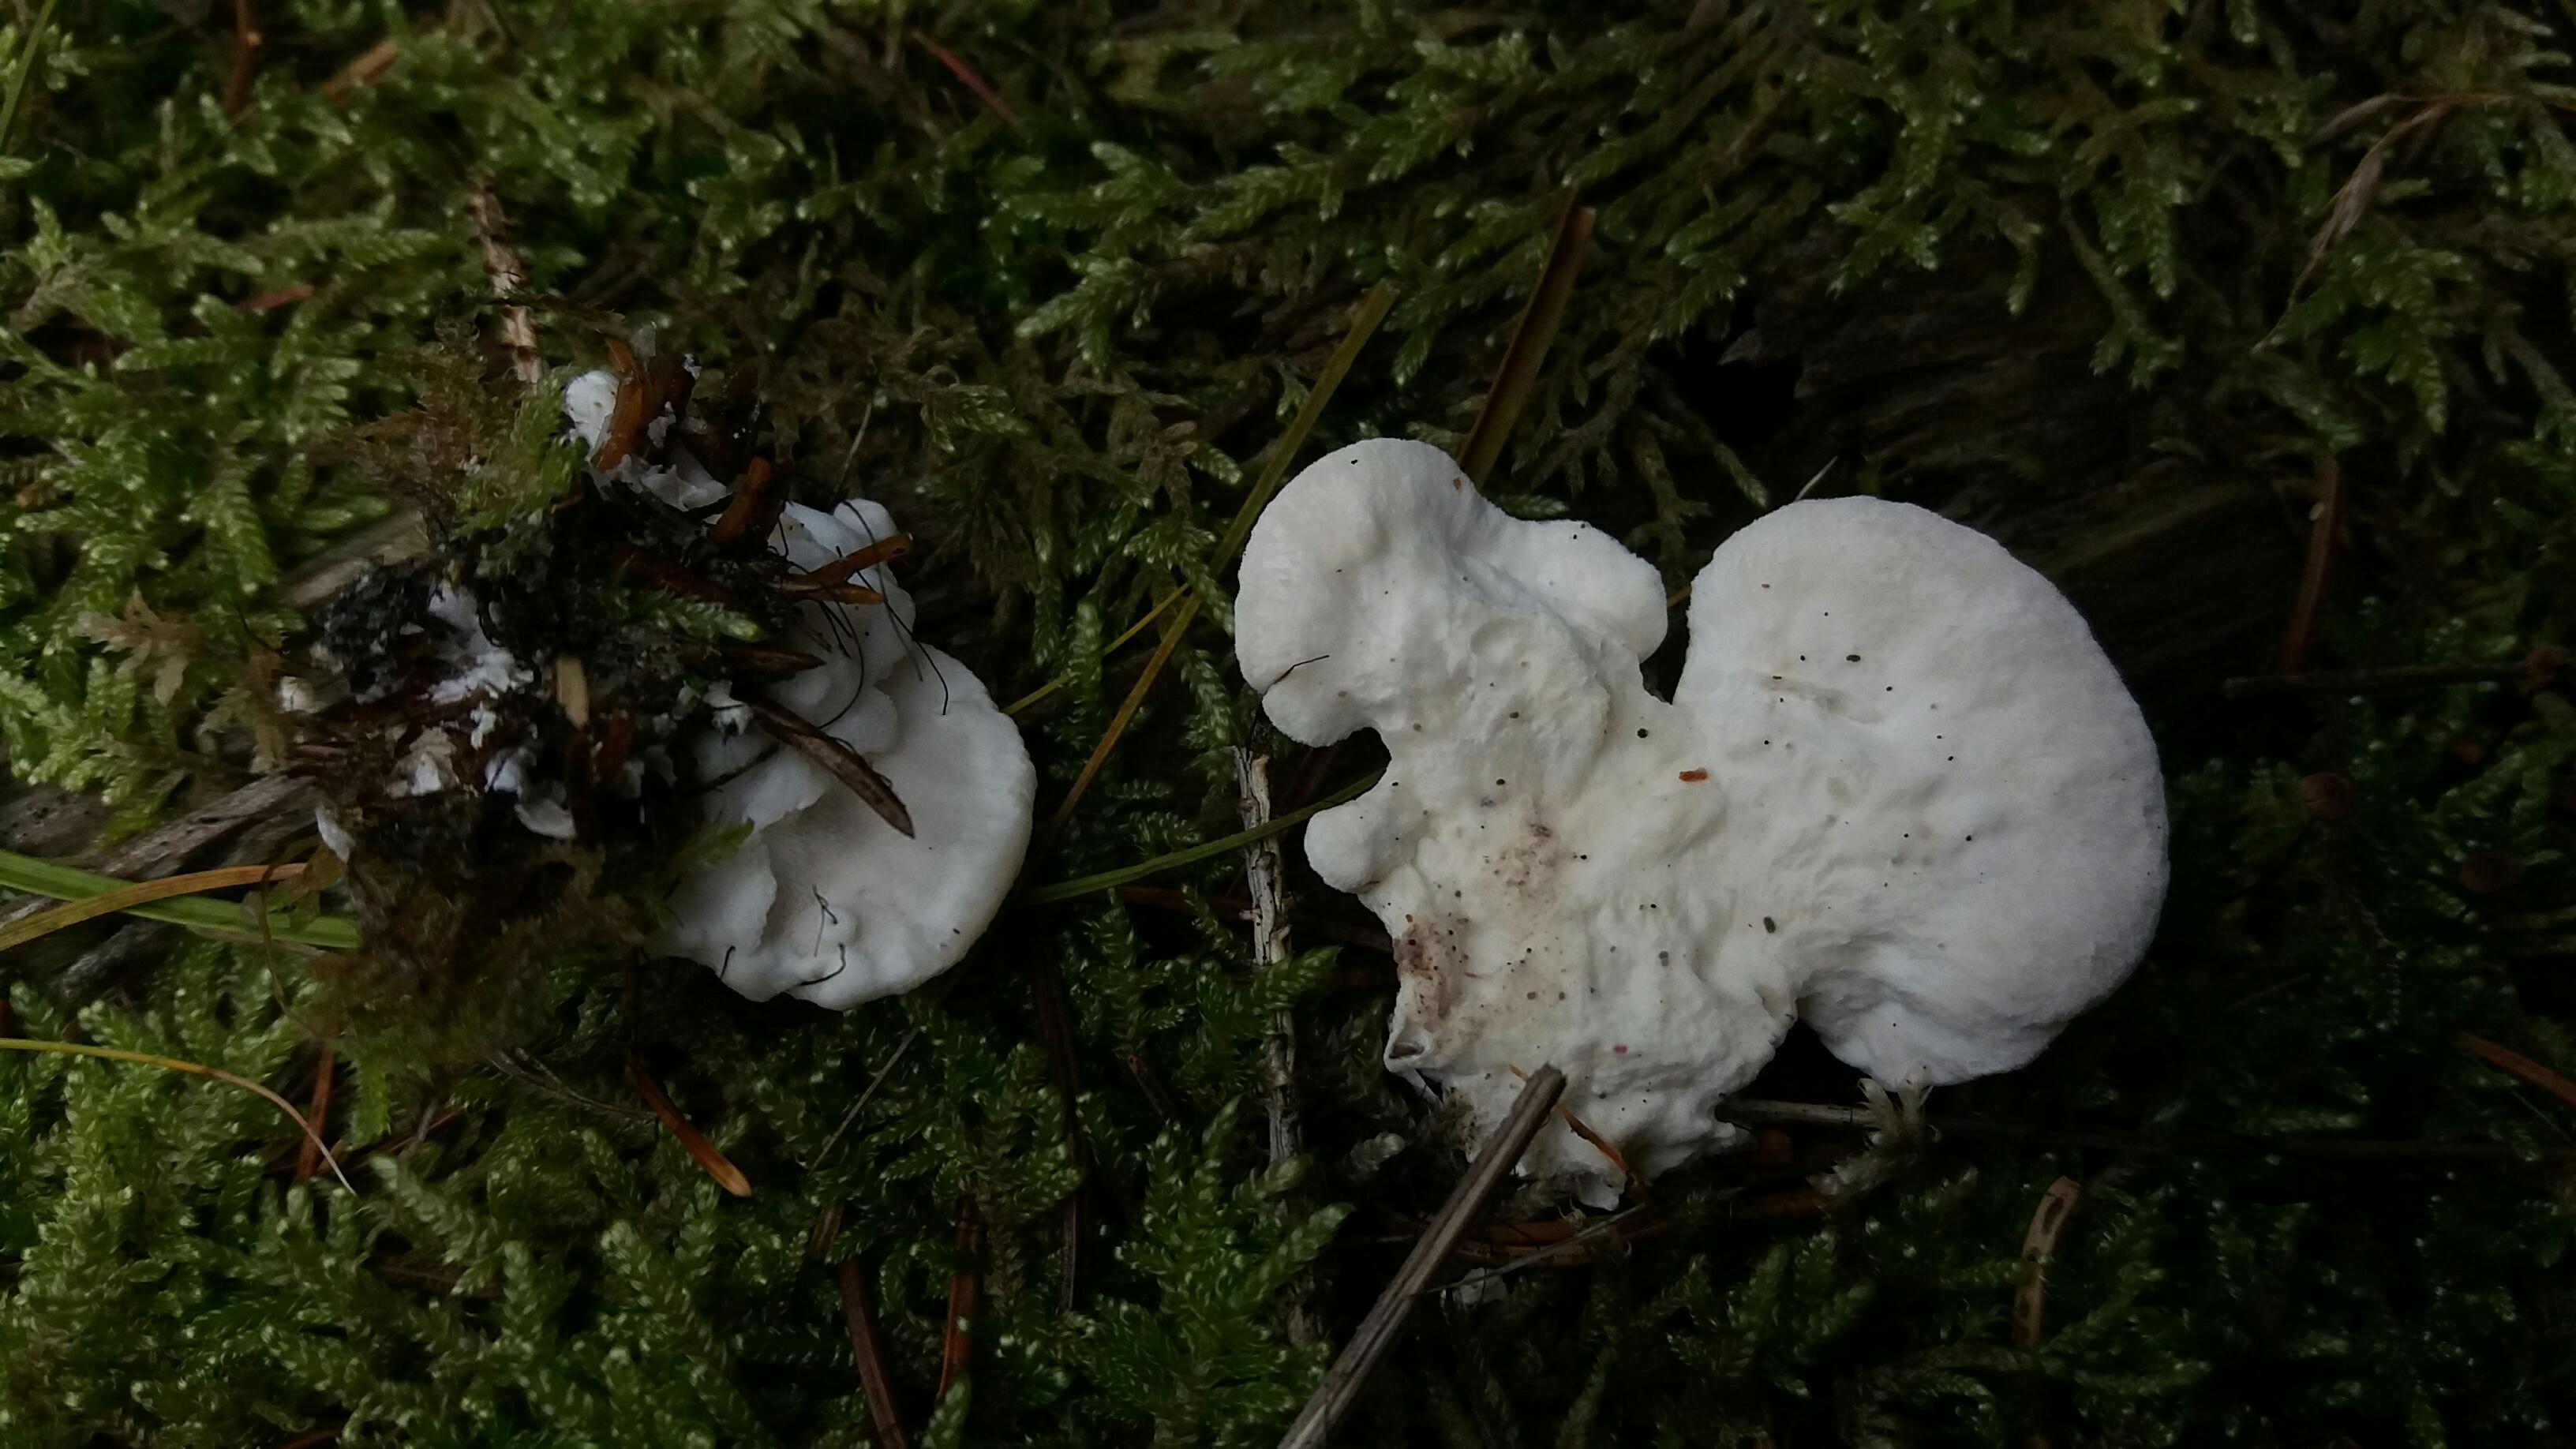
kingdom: Fungi
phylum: Basidiomycota
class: Agaricomycetes
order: Polyporales
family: Incrustoporiaceae
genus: Tyromyces
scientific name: Tyromyces lacteus
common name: mælkehvid kødporesvamp
